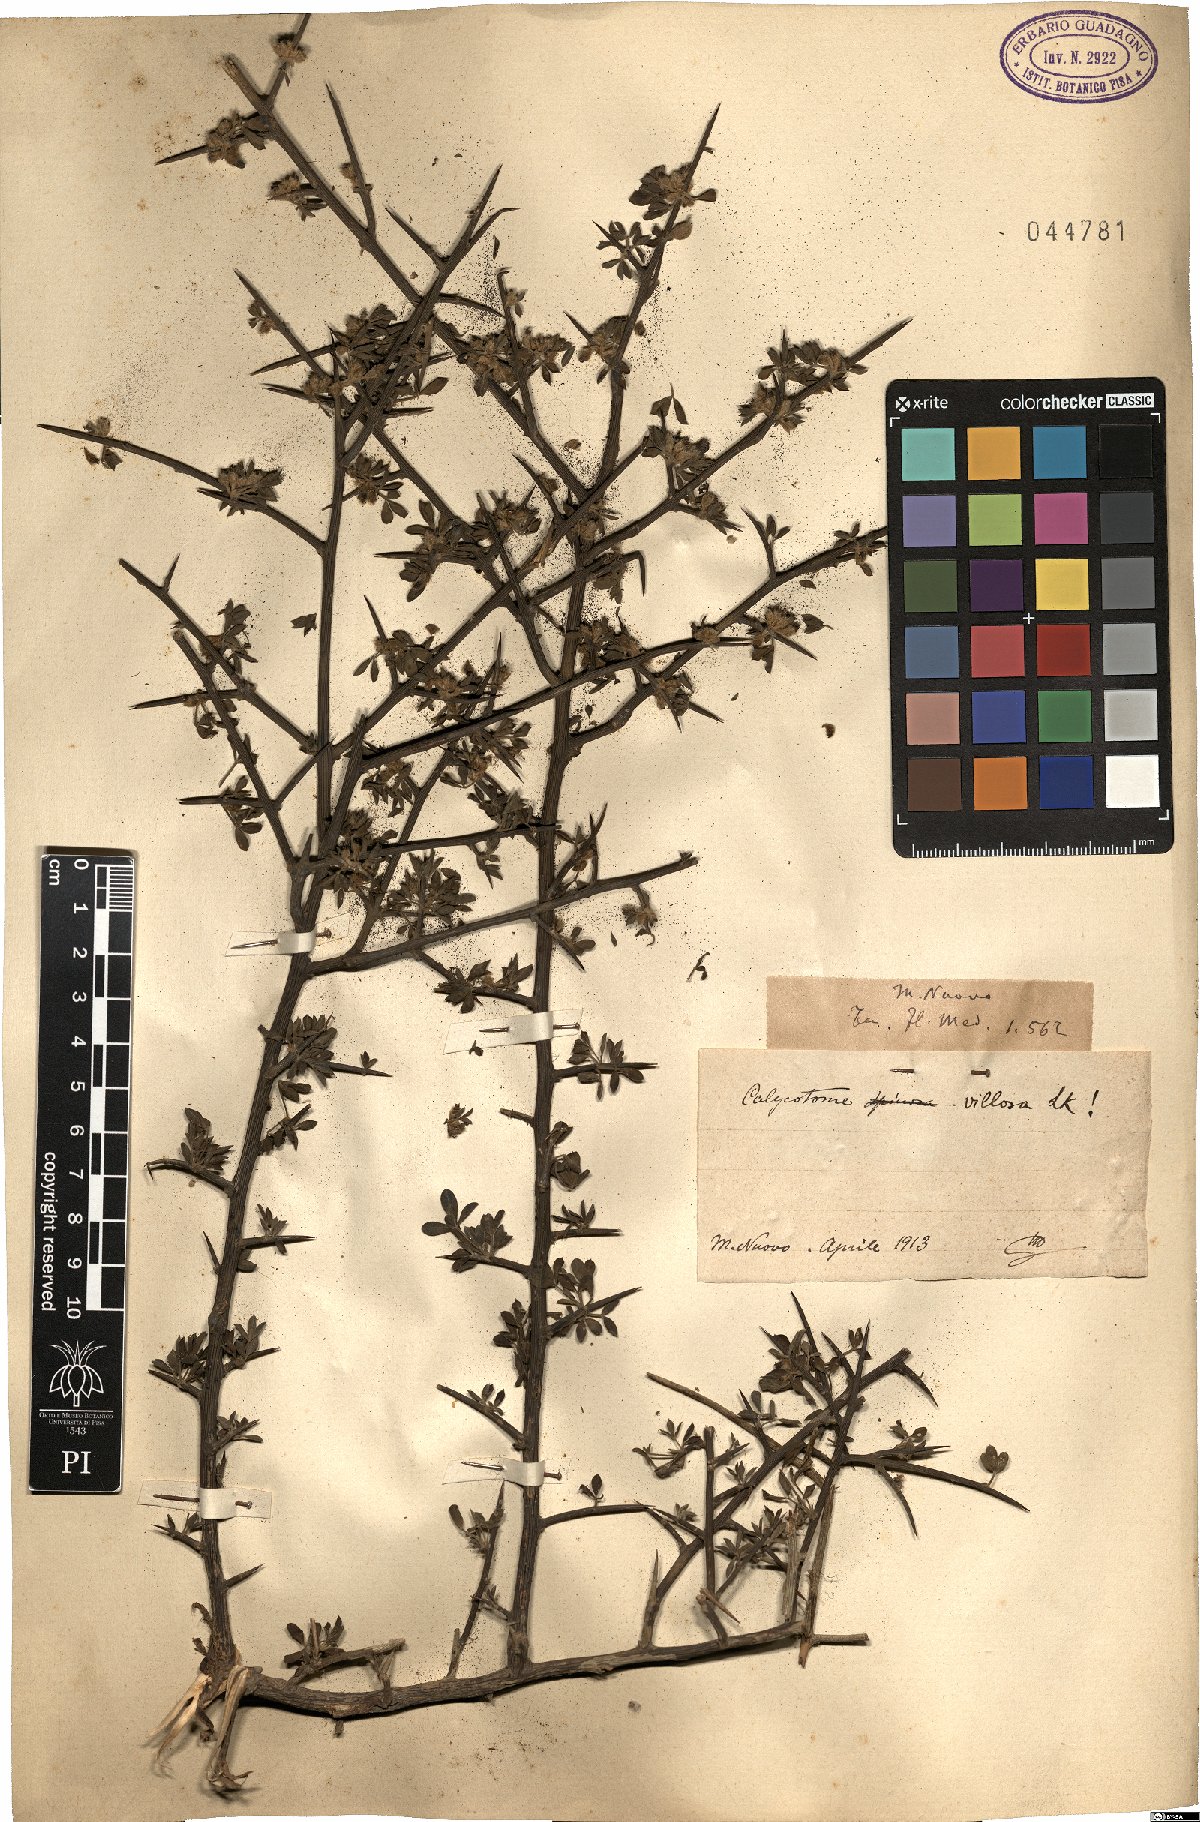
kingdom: Plantae
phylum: Tracheophyta
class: Magnoliopsida
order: Fabales
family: Fabaceae
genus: Calicotome
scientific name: Calicotome villosa
